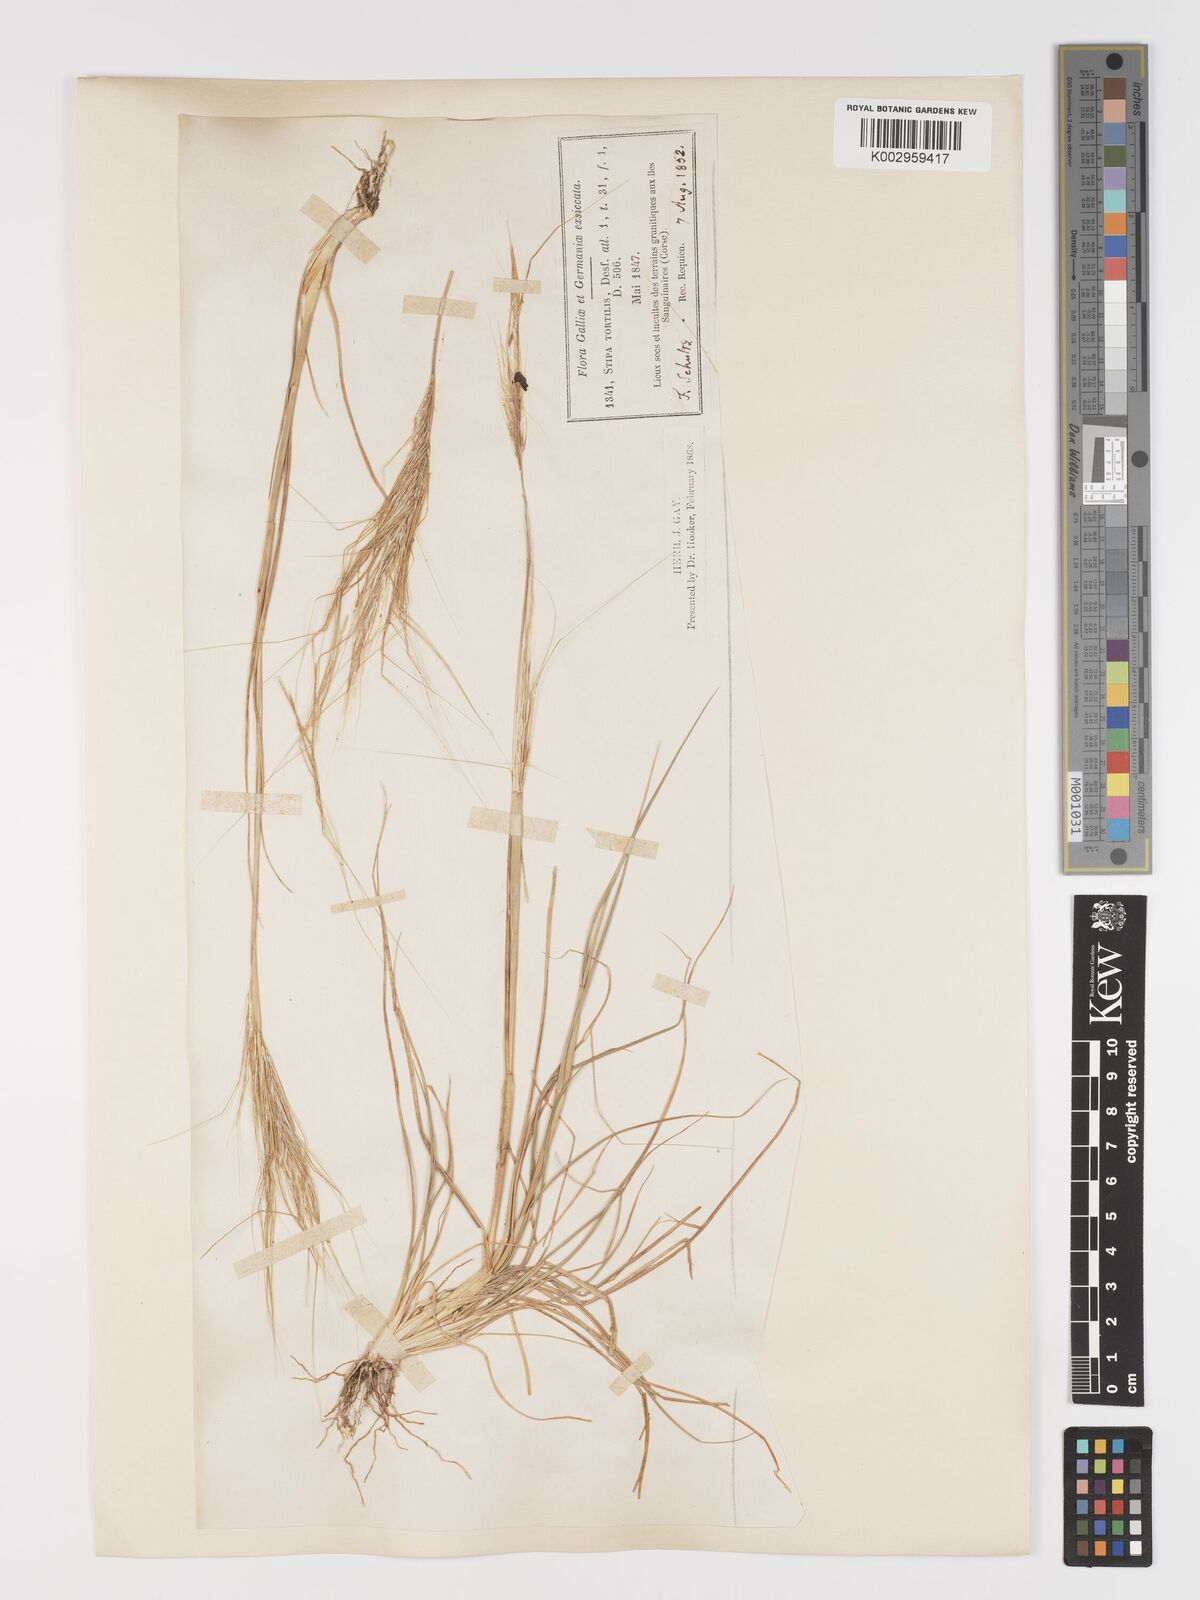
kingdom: Plantae
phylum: Tracheophyta
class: Liliopsida
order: Poales
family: Poaceae
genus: Stipa
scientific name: Stipa
